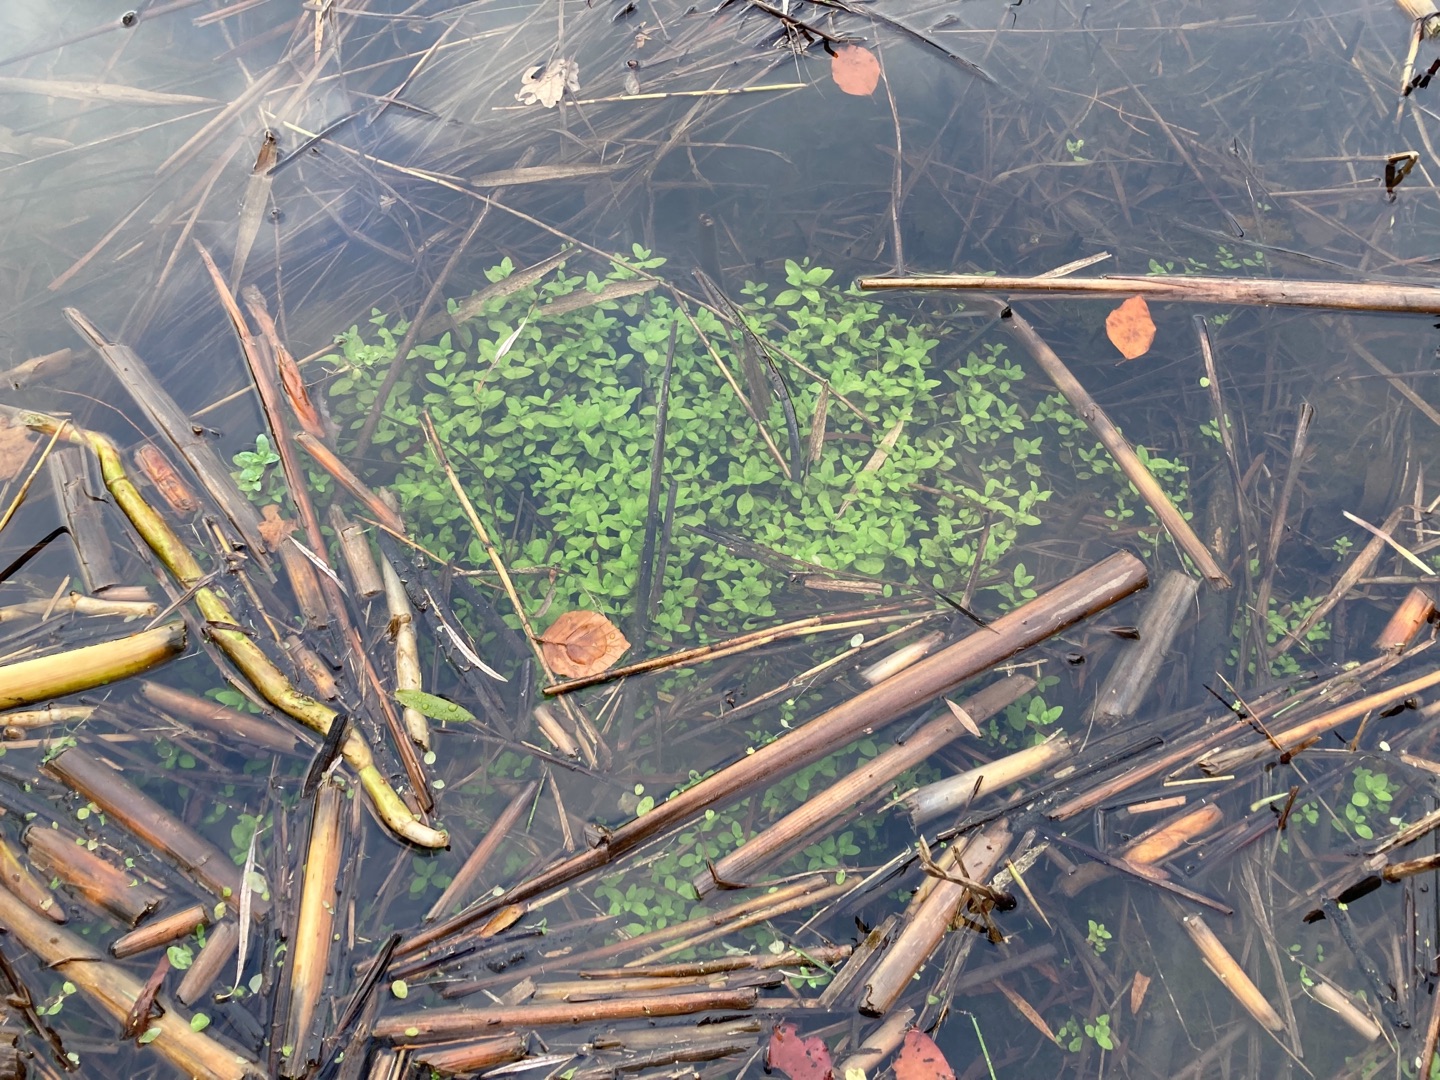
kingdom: Plantae
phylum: Tracheophyta
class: Magnoliopsida
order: Caryophyllales
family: Caryophyllaceae
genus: Stellaria
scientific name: Stellaria alsine
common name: Sump-fladstjerne
